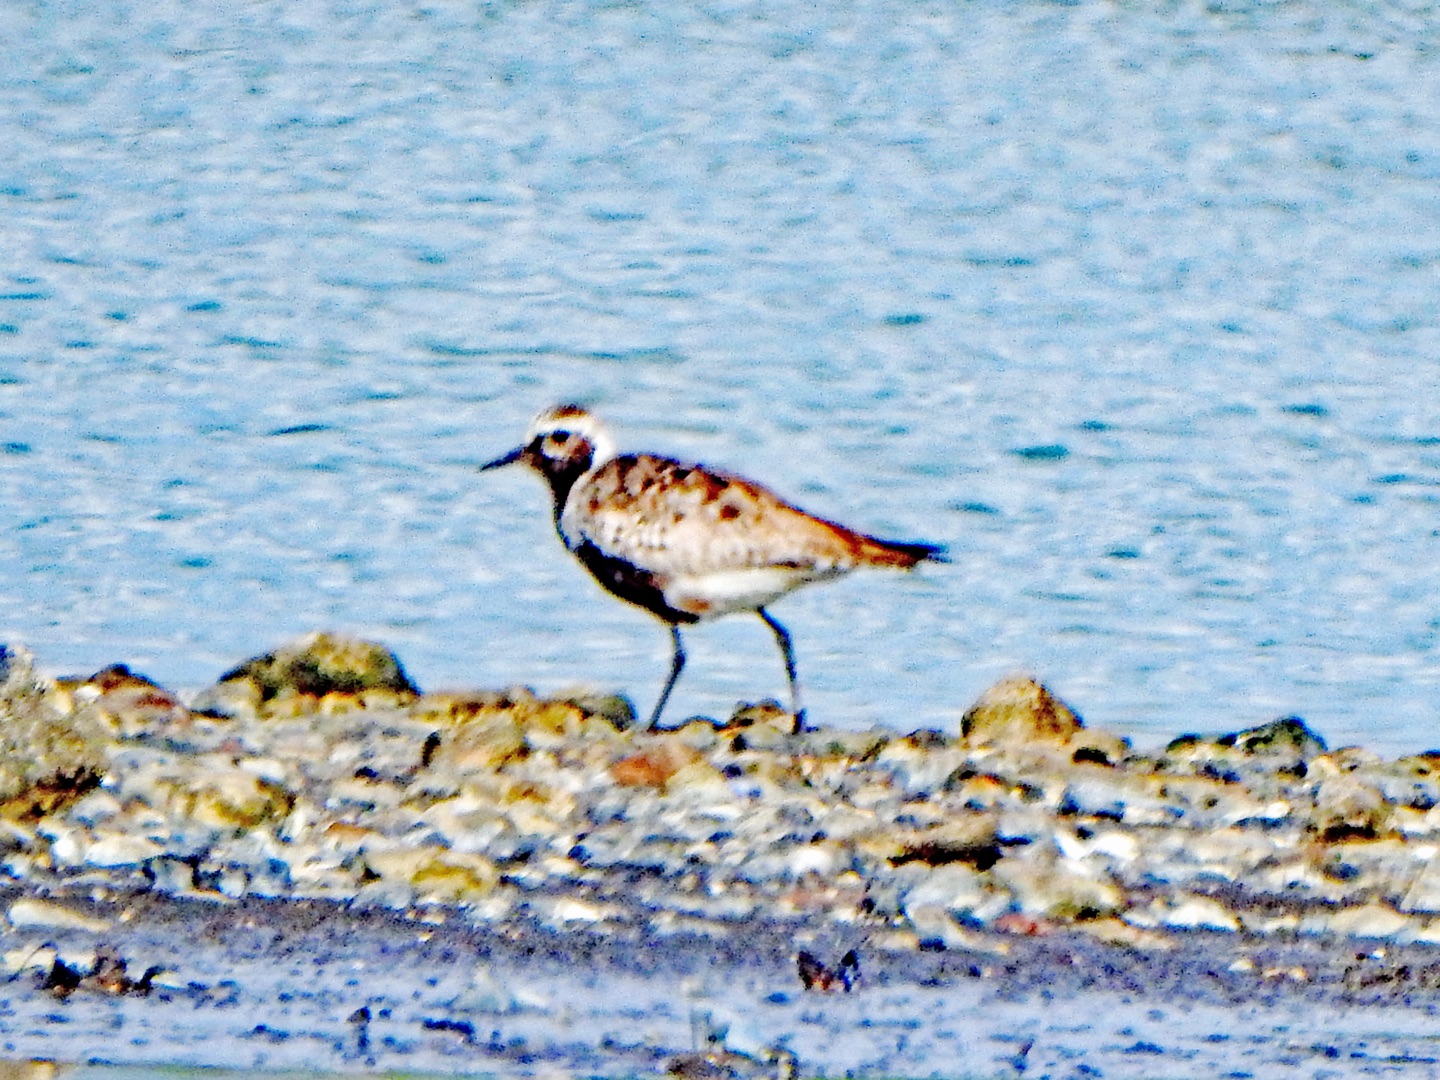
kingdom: Animalia
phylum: Chordata
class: Aves
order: Charadriiformes
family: Charadriidae
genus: Pluvialis
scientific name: Pluvialis squatarola
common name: Strandhjejle
